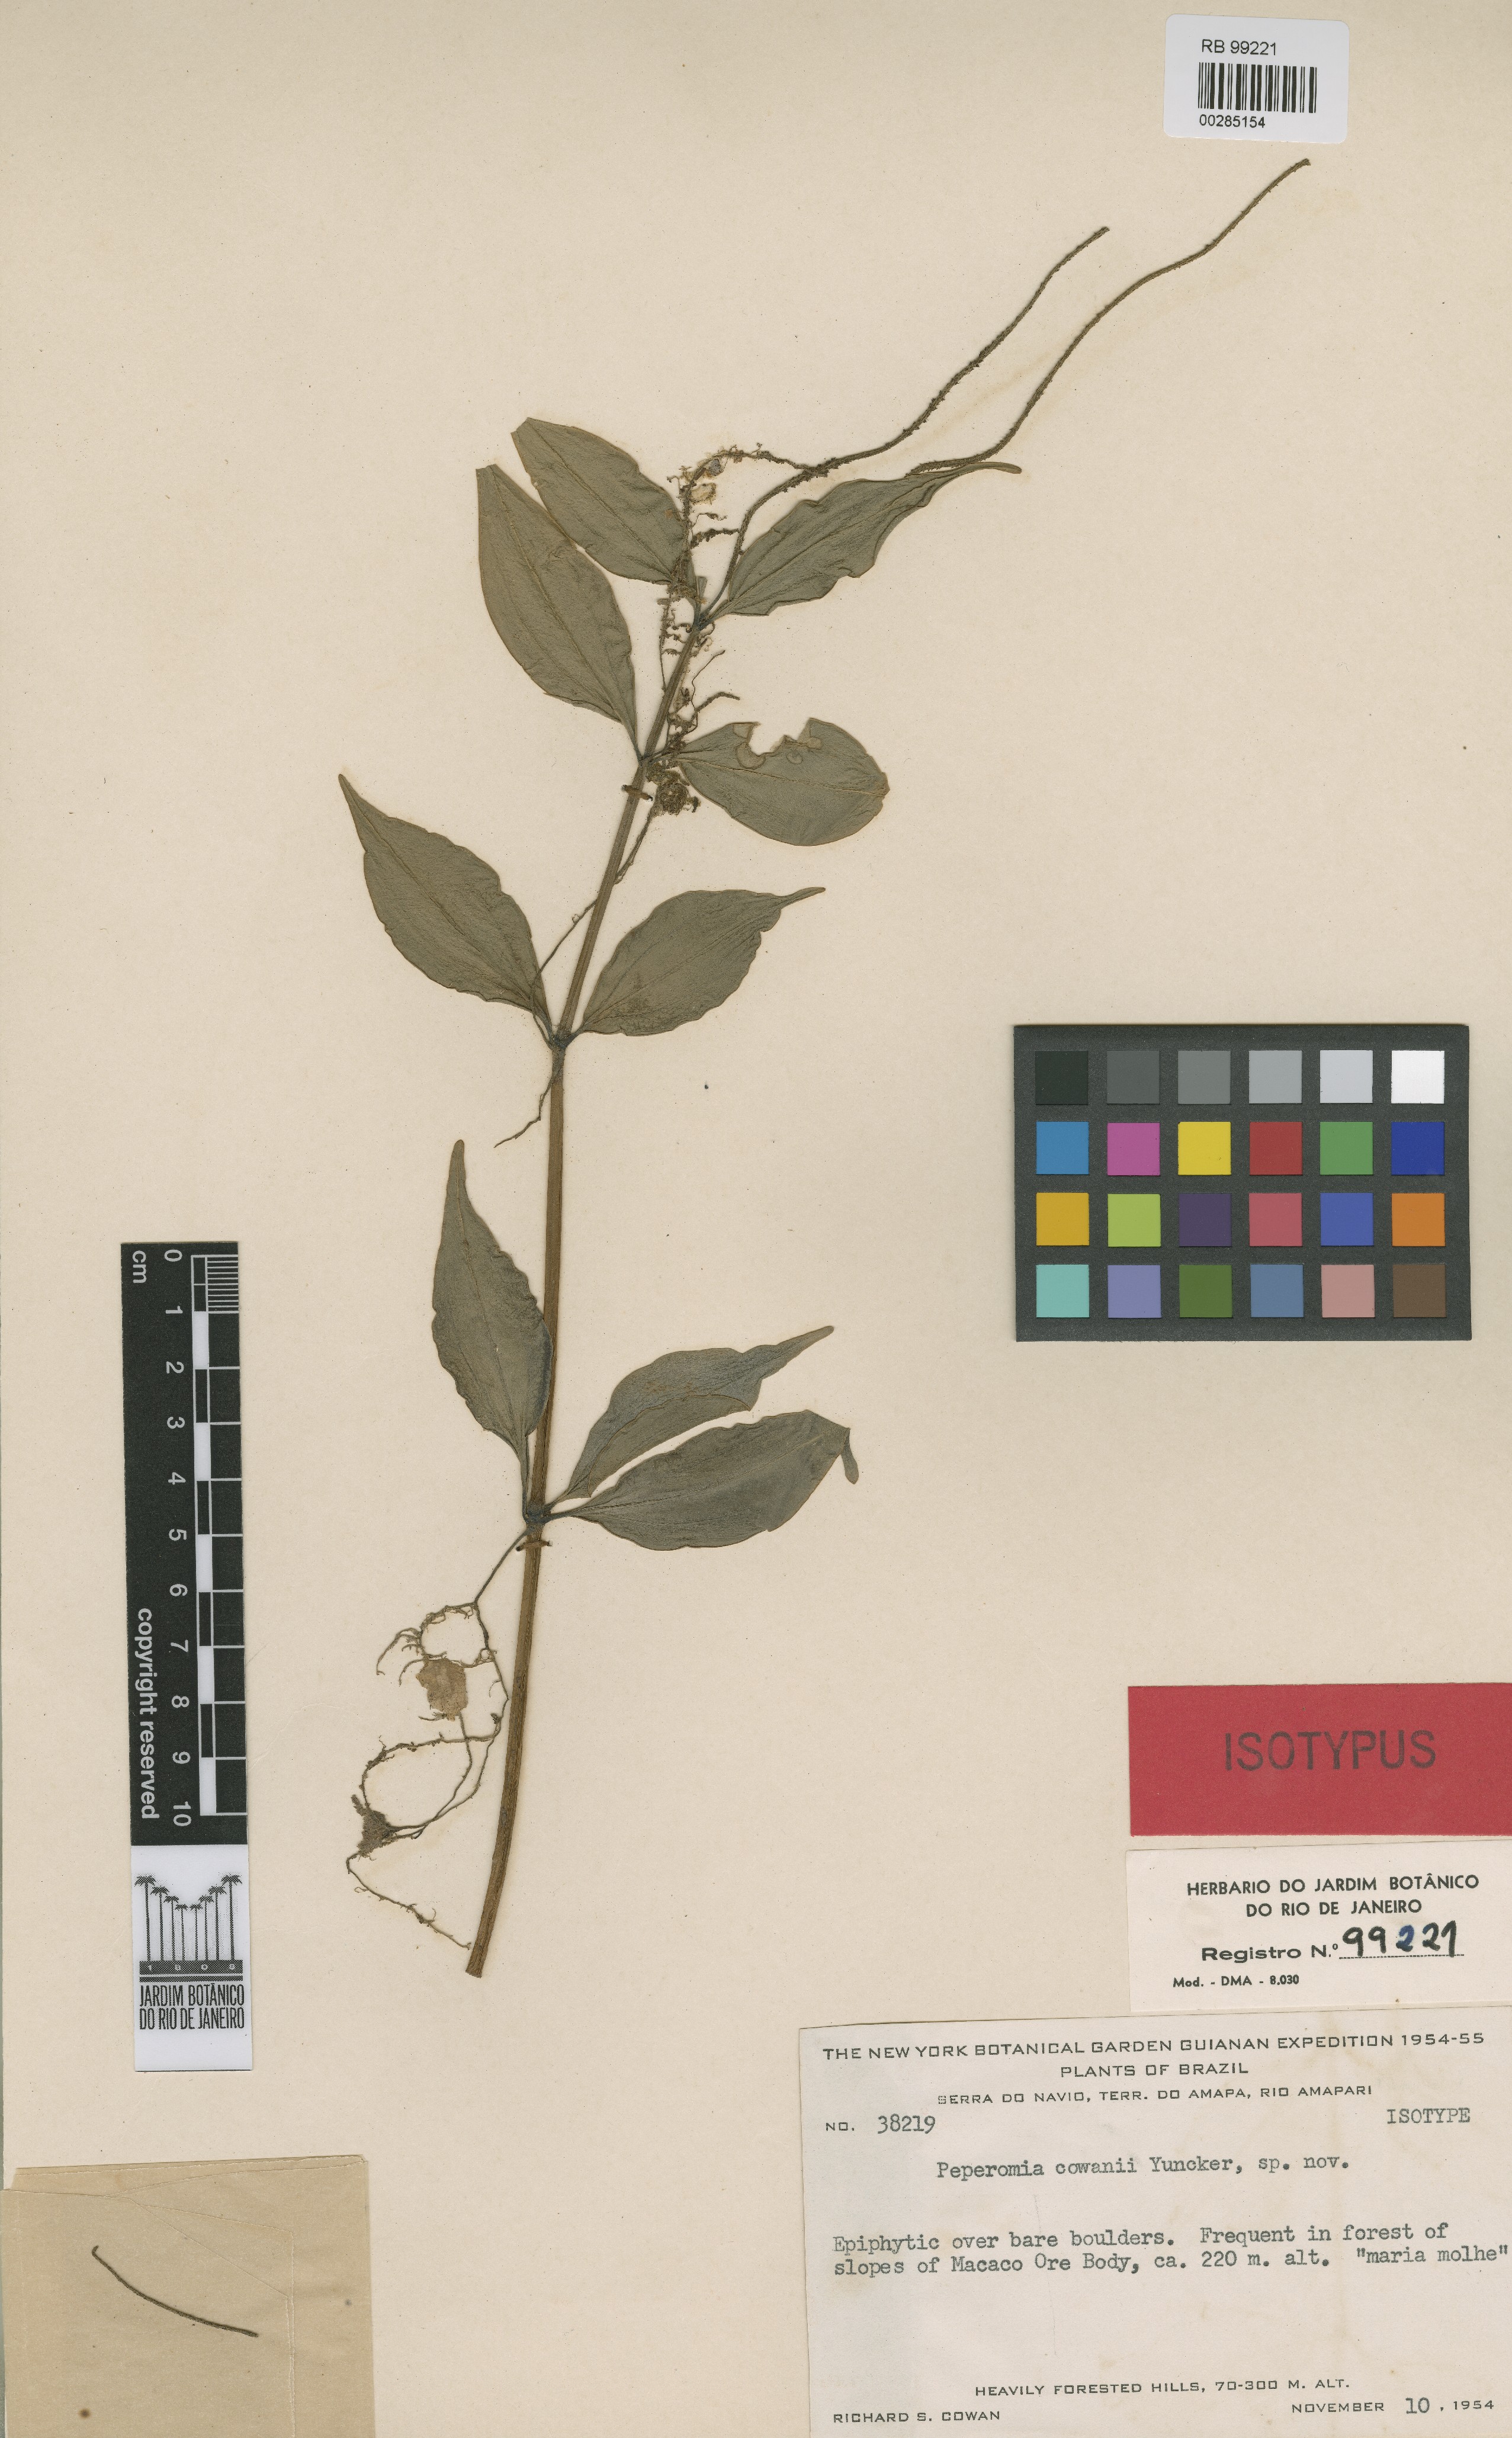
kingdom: Plantae
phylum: Tracheophyta
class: Magnoliopsida
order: Piperales
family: Piperaceae
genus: Peperomia
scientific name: Peperomia cowanii
